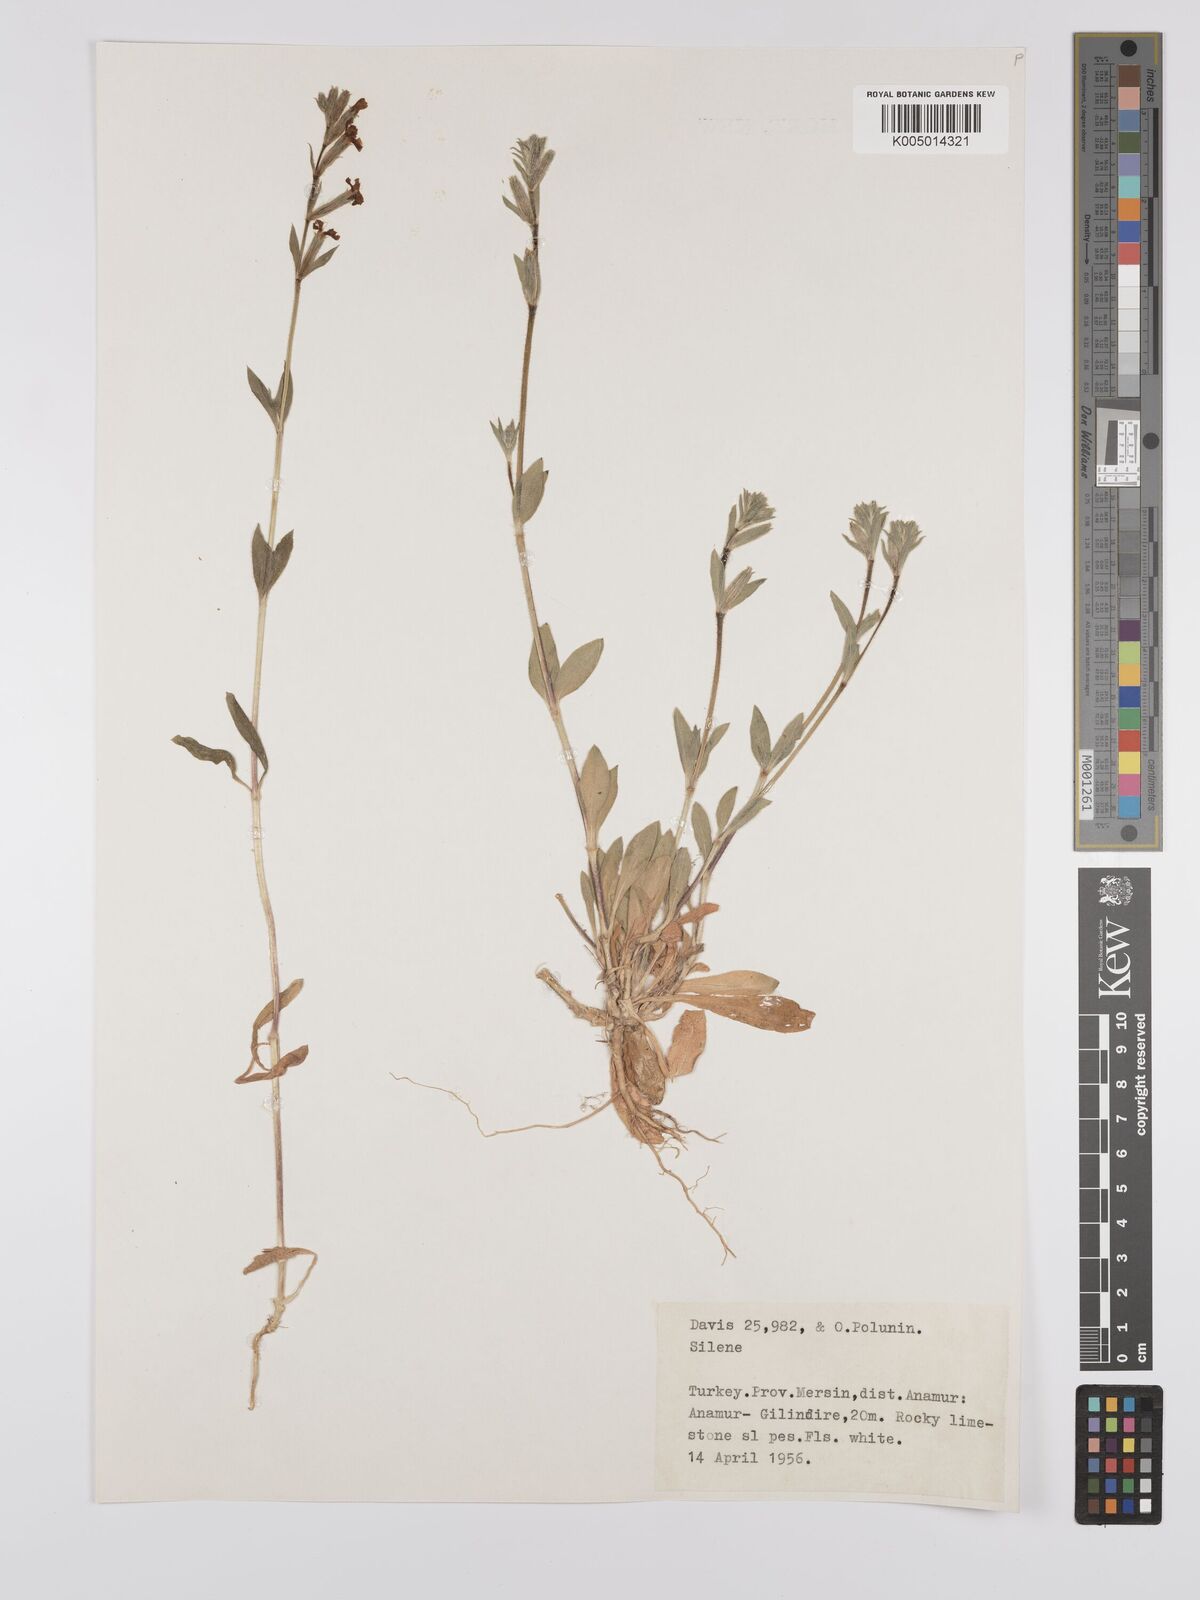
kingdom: Plantae
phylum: Tracheophyta
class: Magnoliopsida
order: Caryophyllales
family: Caryophyllaceae
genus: Silene
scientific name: Silene
